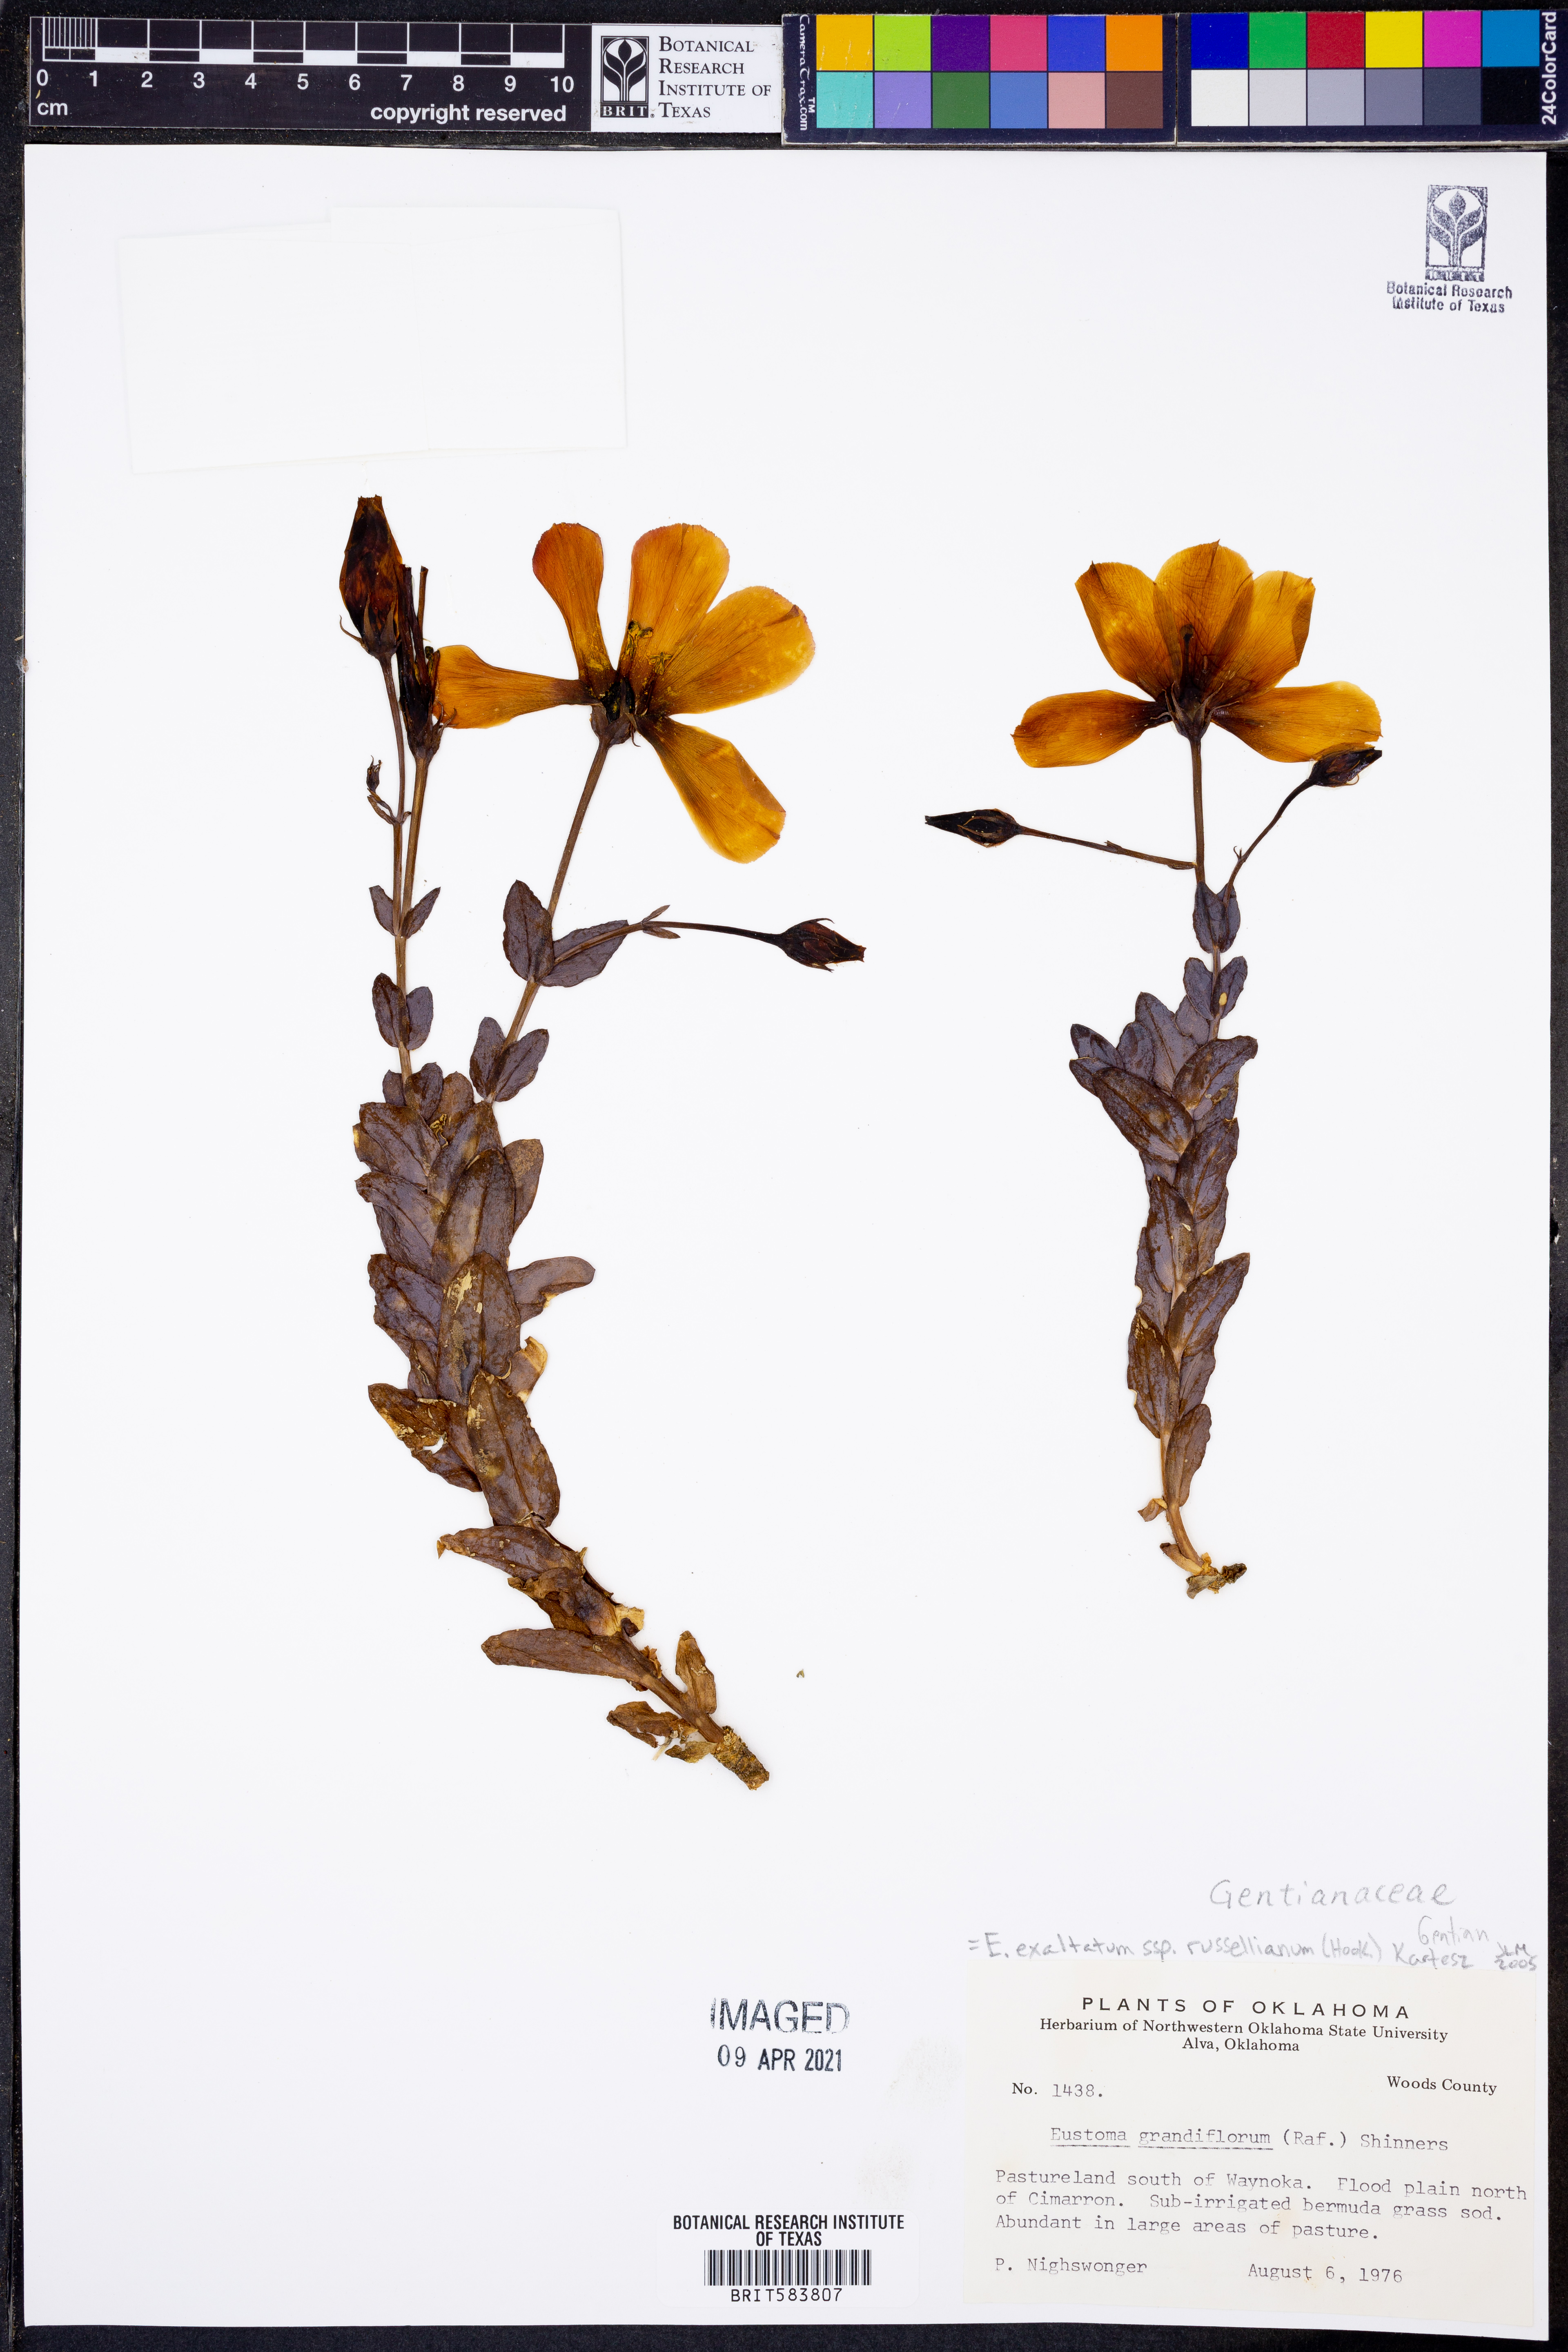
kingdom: Plantae
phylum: Tracheophyta
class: Magnoliopsida
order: Gentianales
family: Gentianaceae
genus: Eustoma
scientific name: Eustoma russellianum
